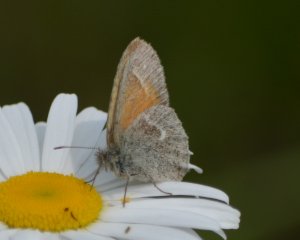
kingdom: Animalia
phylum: Arthropoda
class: Insecta
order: Lepidoptera
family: Nymphalidae
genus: Coenonympha
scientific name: Coenonympha tullia
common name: Large Heath
